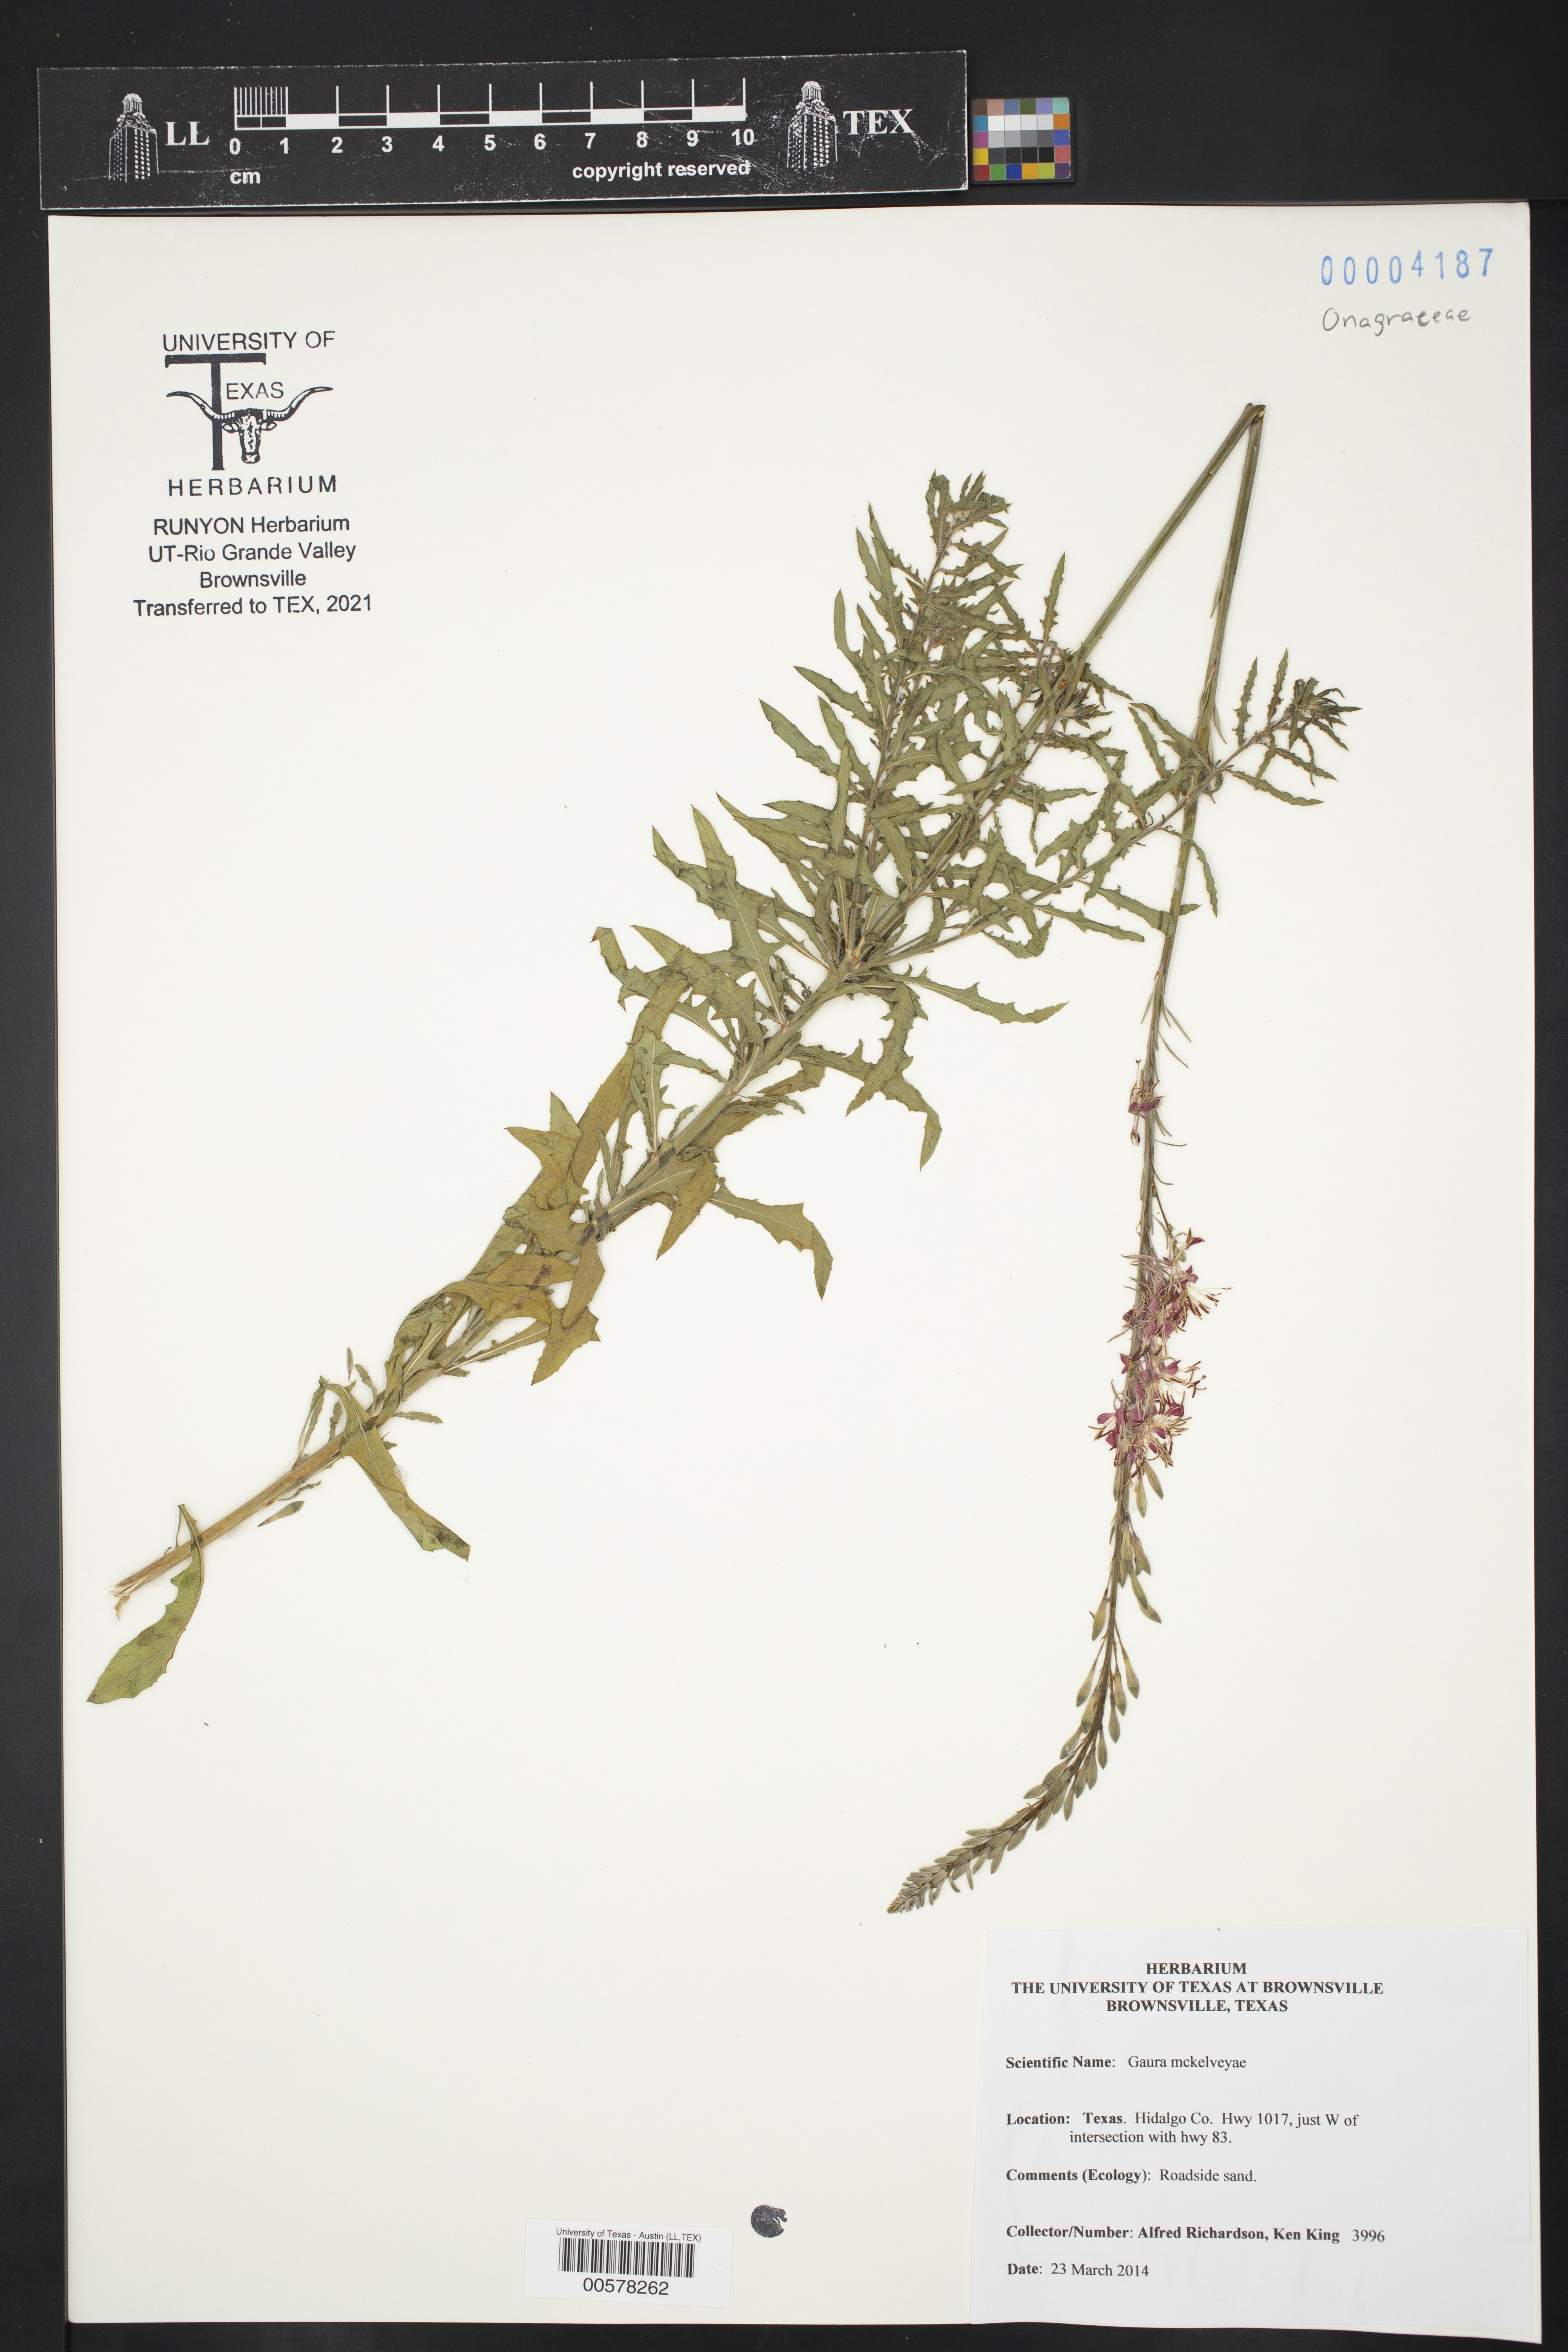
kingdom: Plantae
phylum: Tracheophyta
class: Magnoliopsida
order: Myrtales
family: Onagraceae
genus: Oenothera
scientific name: Oenothera mckelveyae
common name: Mckelvey's beeblossom
